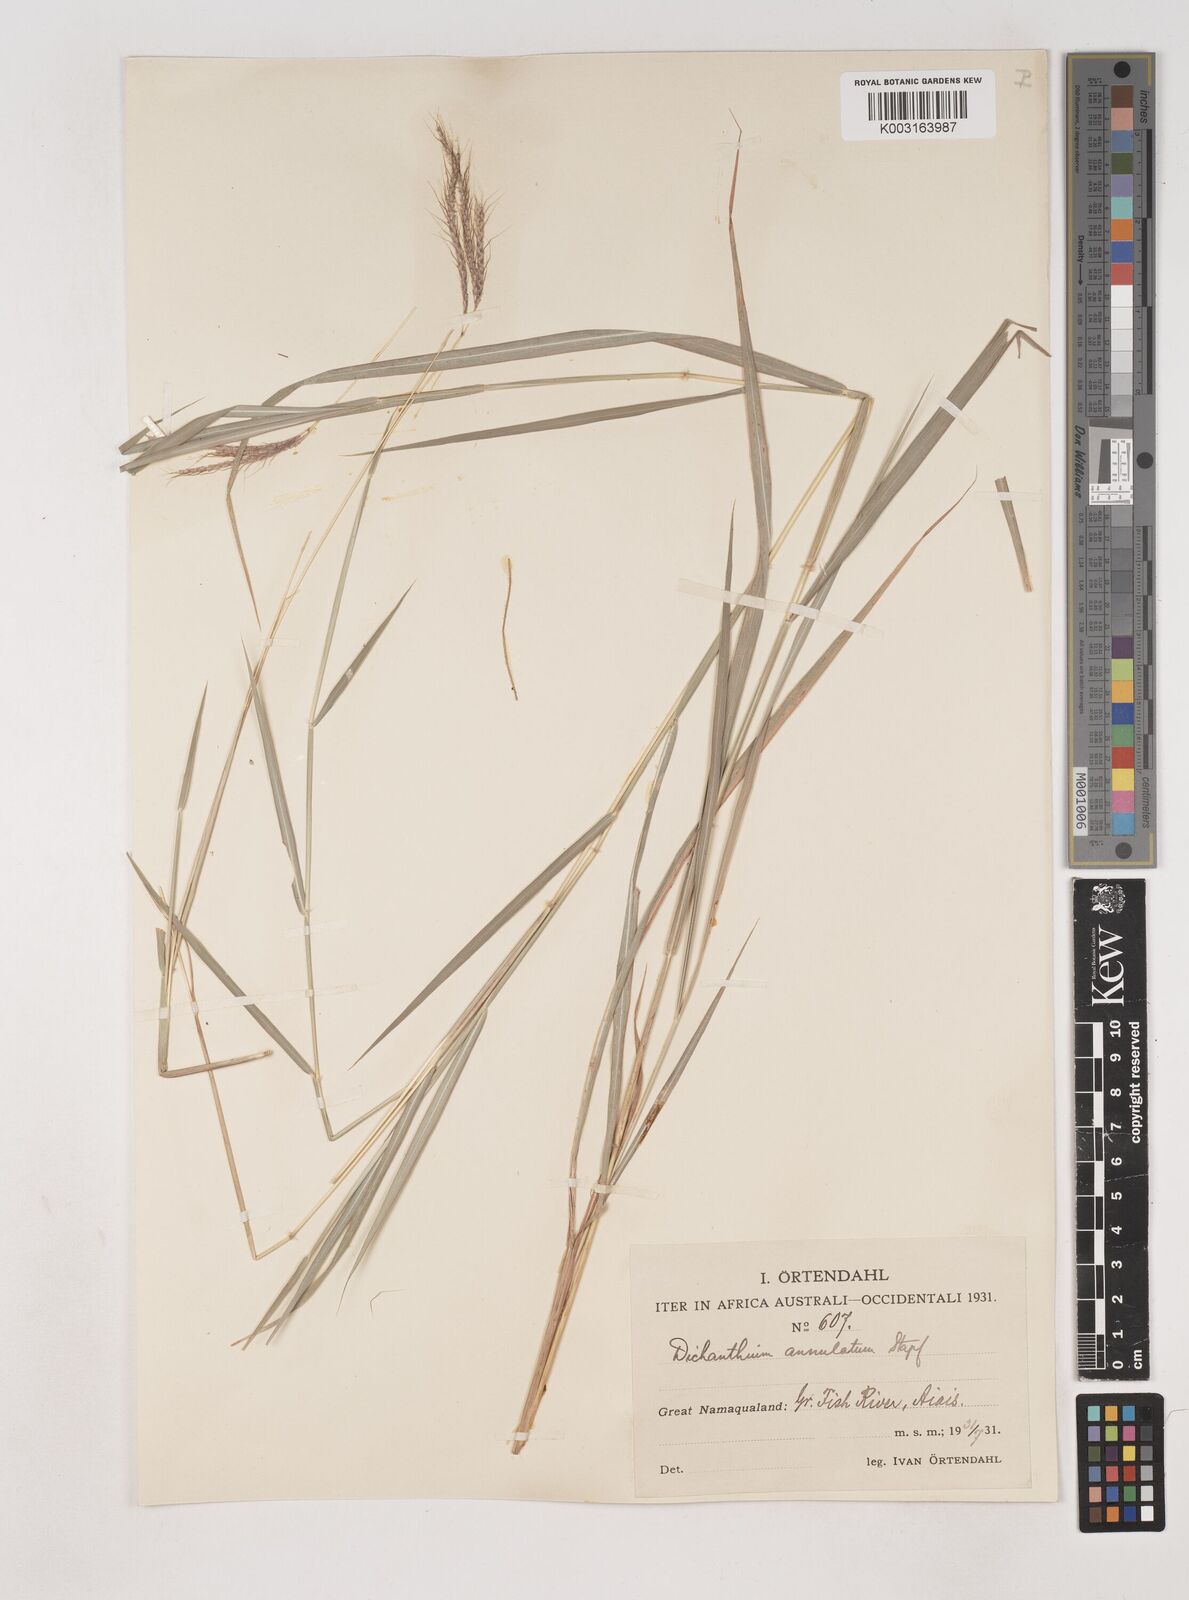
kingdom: Plantae
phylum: Tracheophyta
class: Liliopsida
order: Poales
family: Poaceae
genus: Dichanthium
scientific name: Dichanthium annulatum
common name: Kleberg's bluestem
